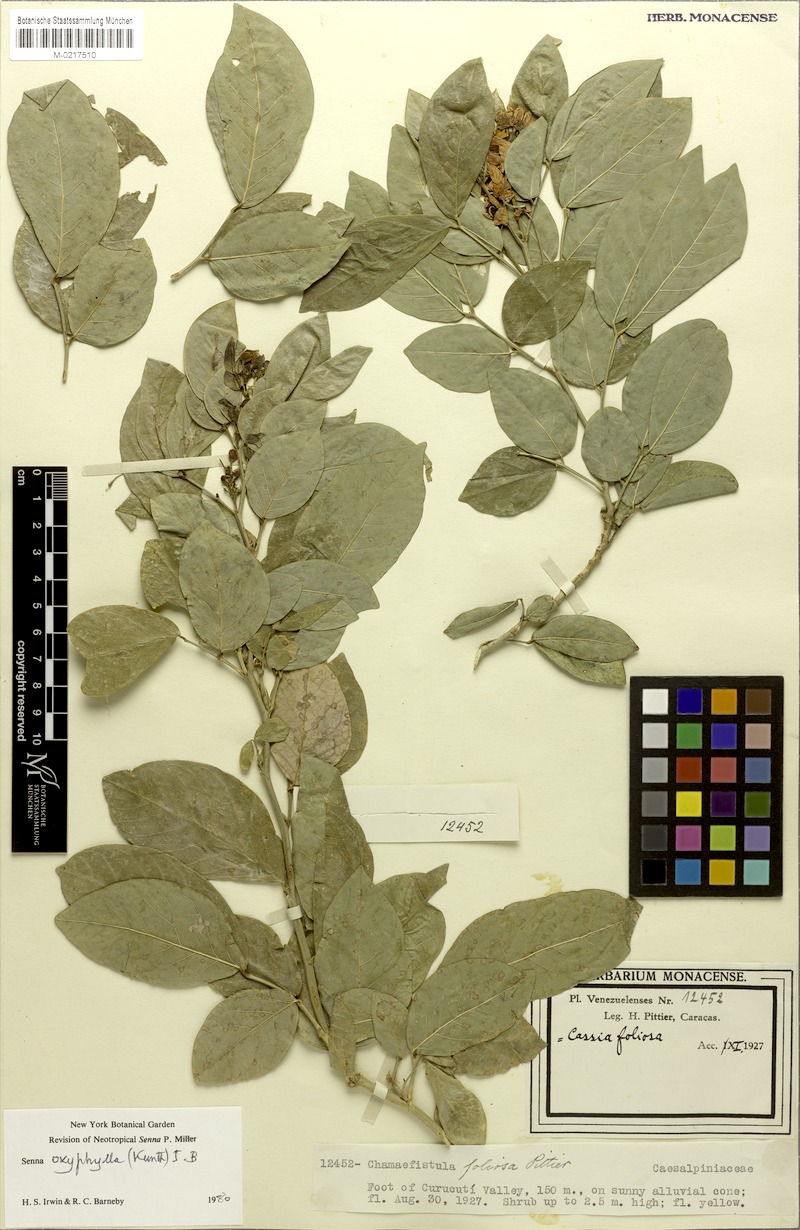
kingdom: Plantae
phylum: Tracheophyta
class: Magnoliopsida
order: Fabales
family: Fabaceae
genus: Senna
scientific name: Senna oxyphylla
